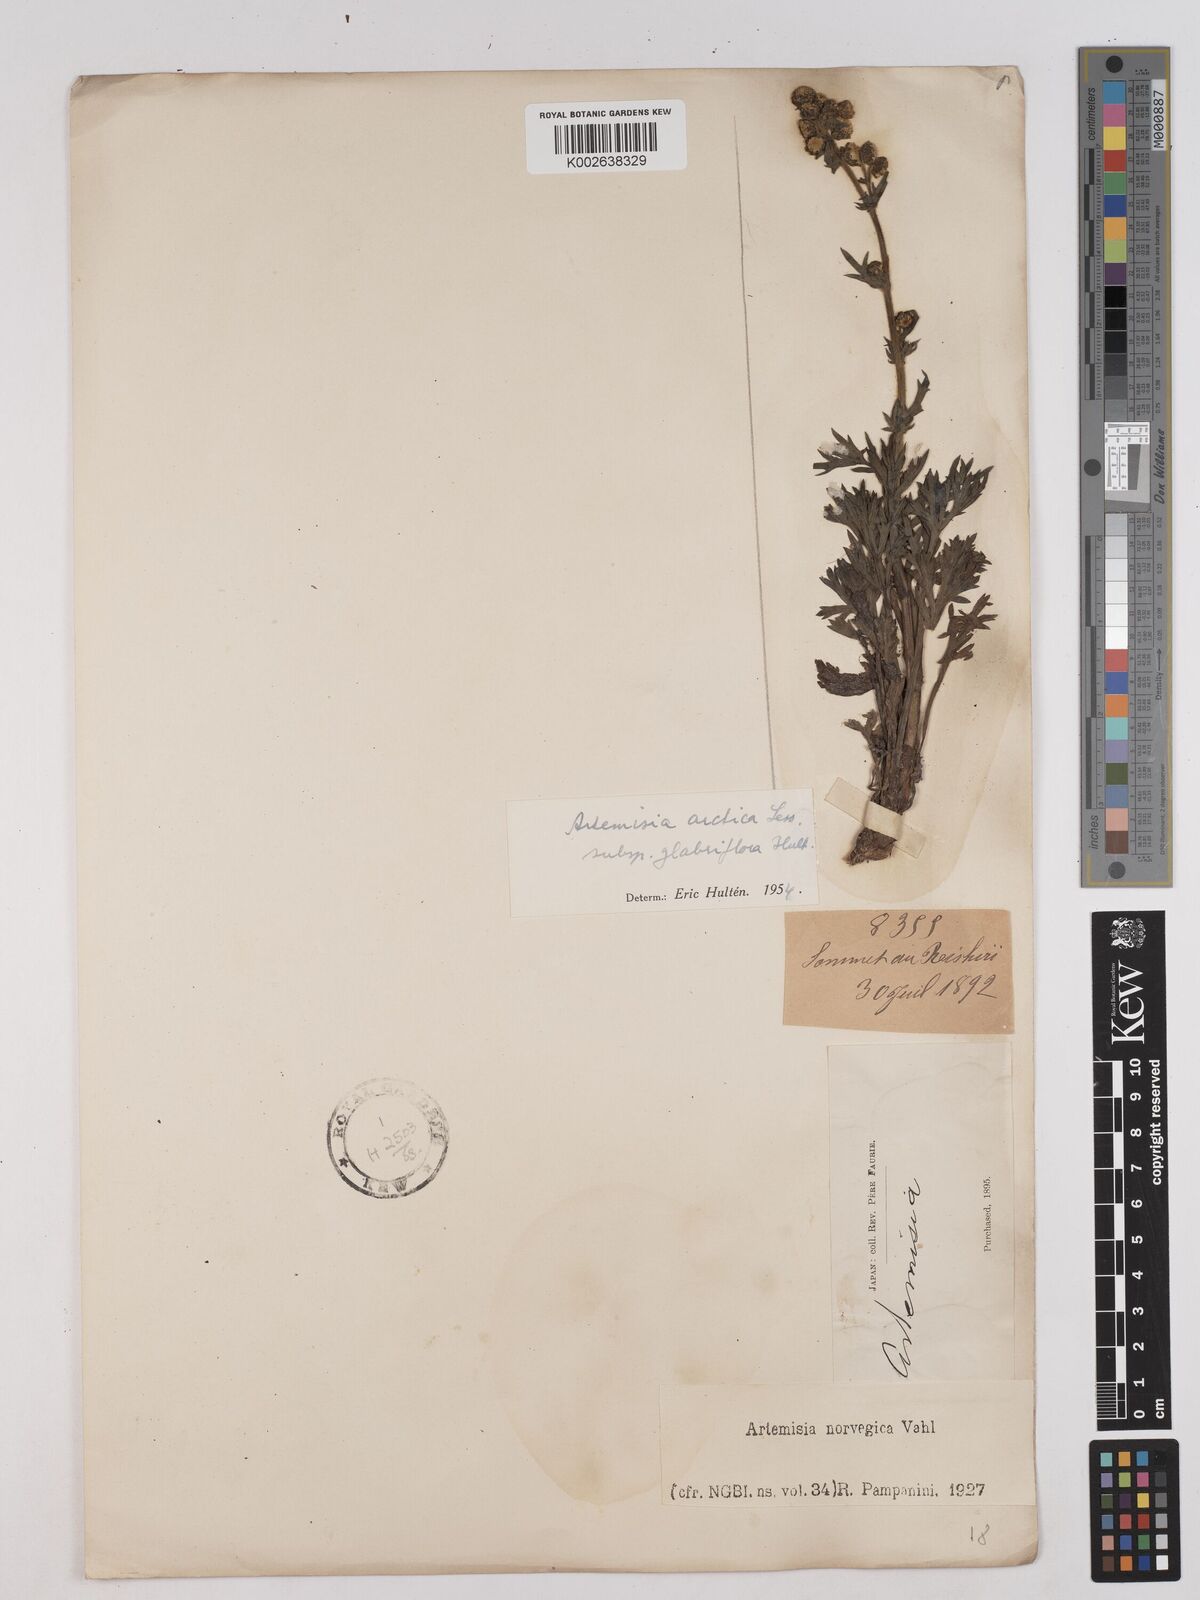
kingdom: Plantae
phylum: Tracheophyta
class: Magnoliopsida
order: Asterales
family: Asteraceae
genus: Artemisia
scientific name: Artemisia norvegica
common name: Norwegian mugwort
